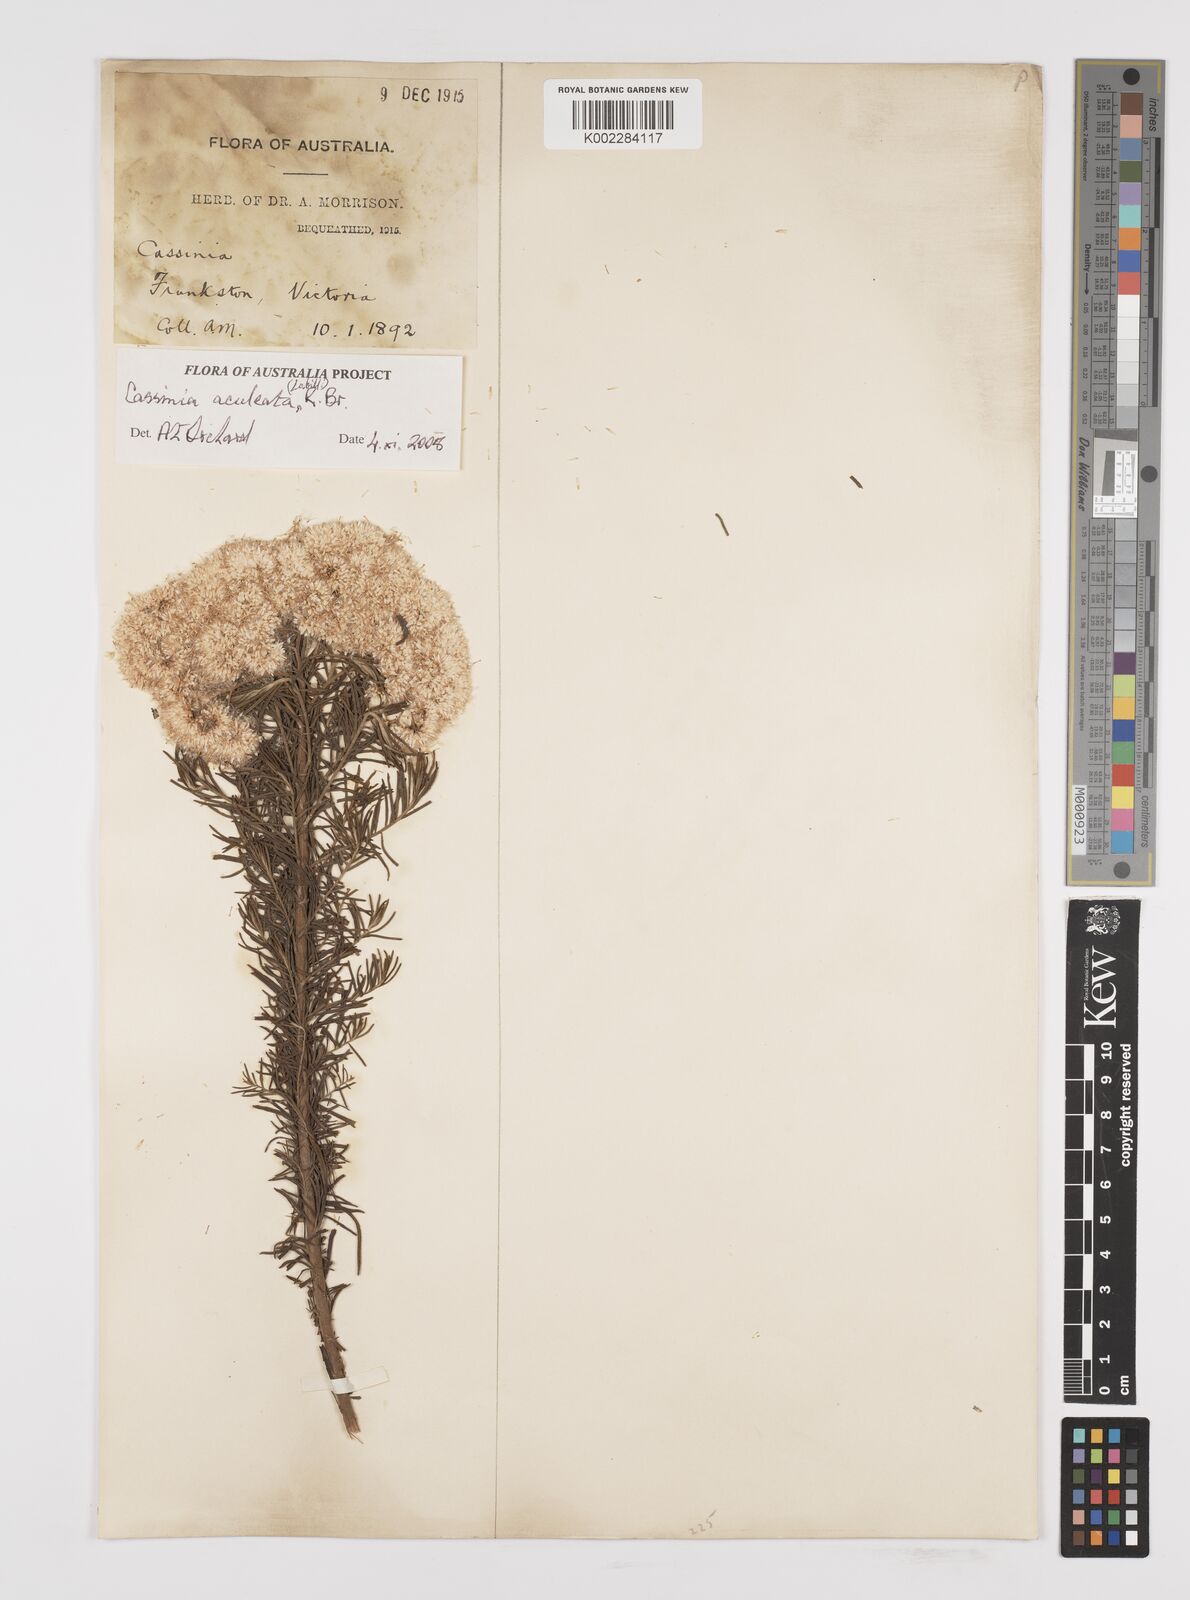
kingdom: Plantae
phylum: Tracheophyta
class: Magnoliopsida
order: Asterales
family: Asteraceae
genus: Cassinia
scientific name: Cassinia aculeata
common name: Australian tauhinu
